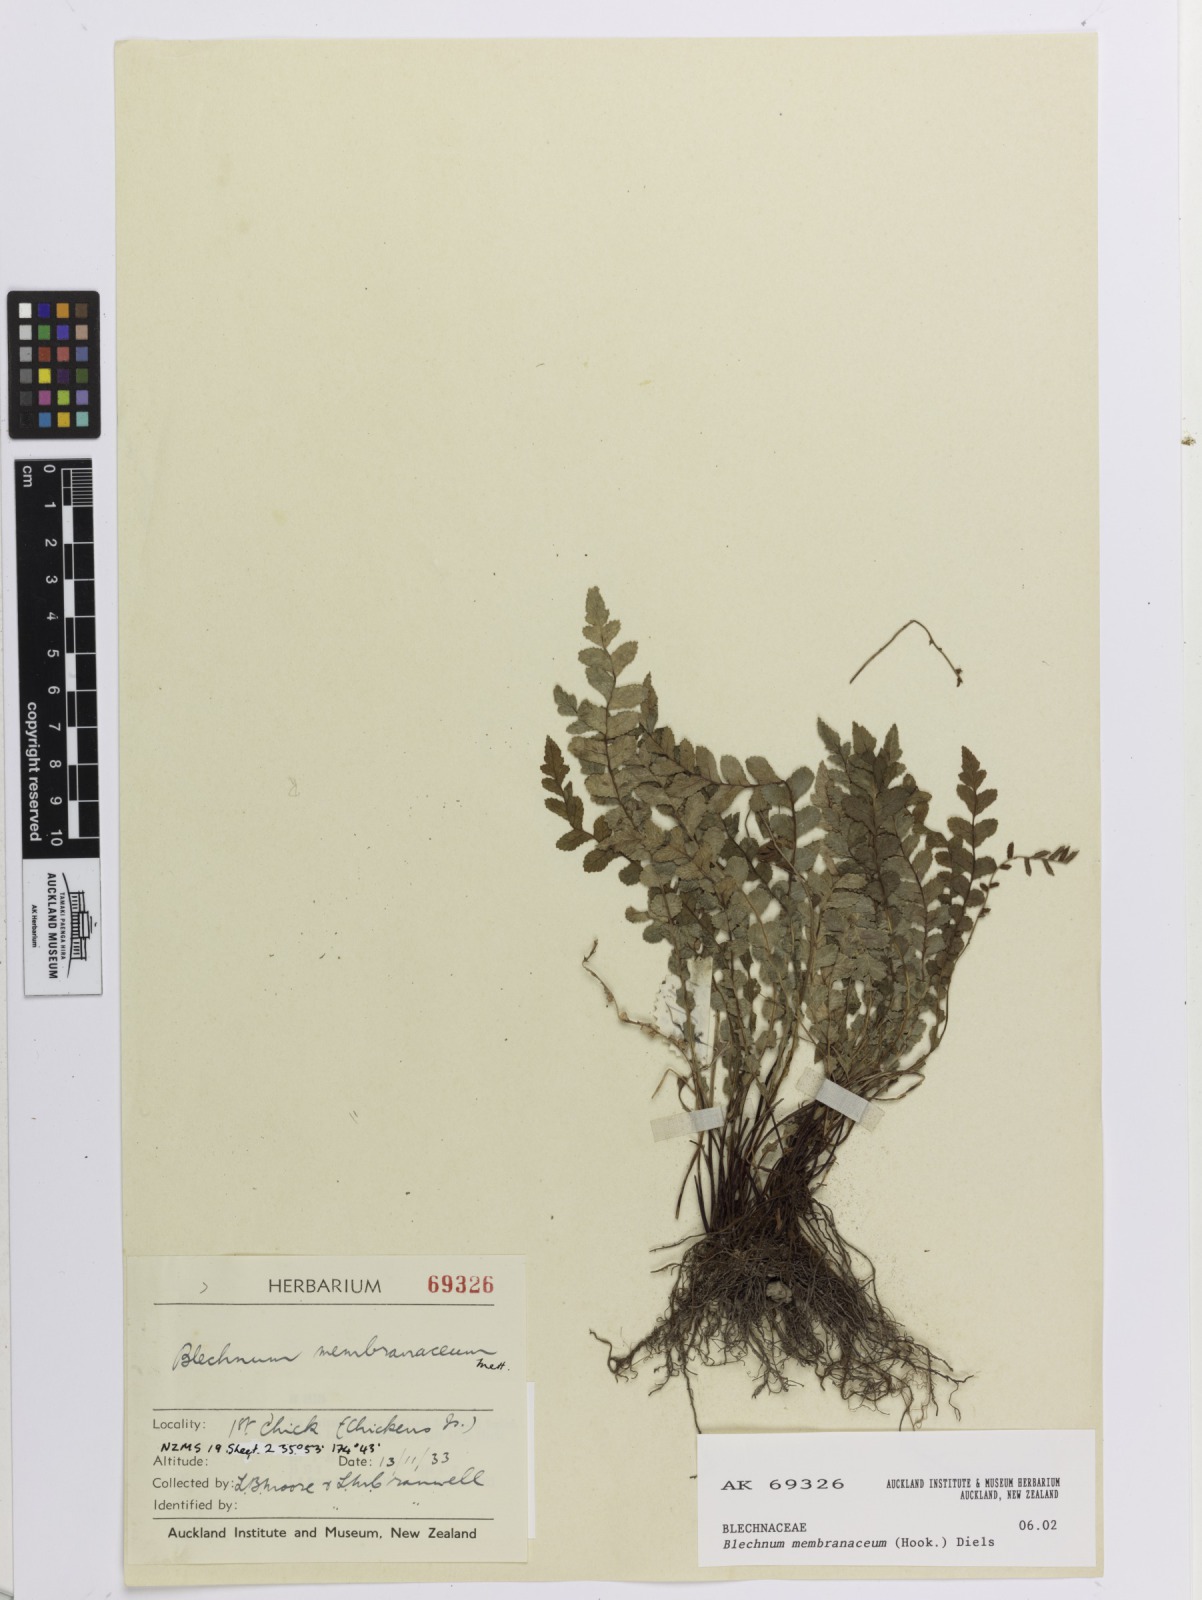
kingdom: Plantae
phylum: Tracheophyta
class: Polypodiopsida
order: Polypodiales
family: Blechnaceae
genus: Austroblechnum
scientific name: Austroblechnum membranaceum
